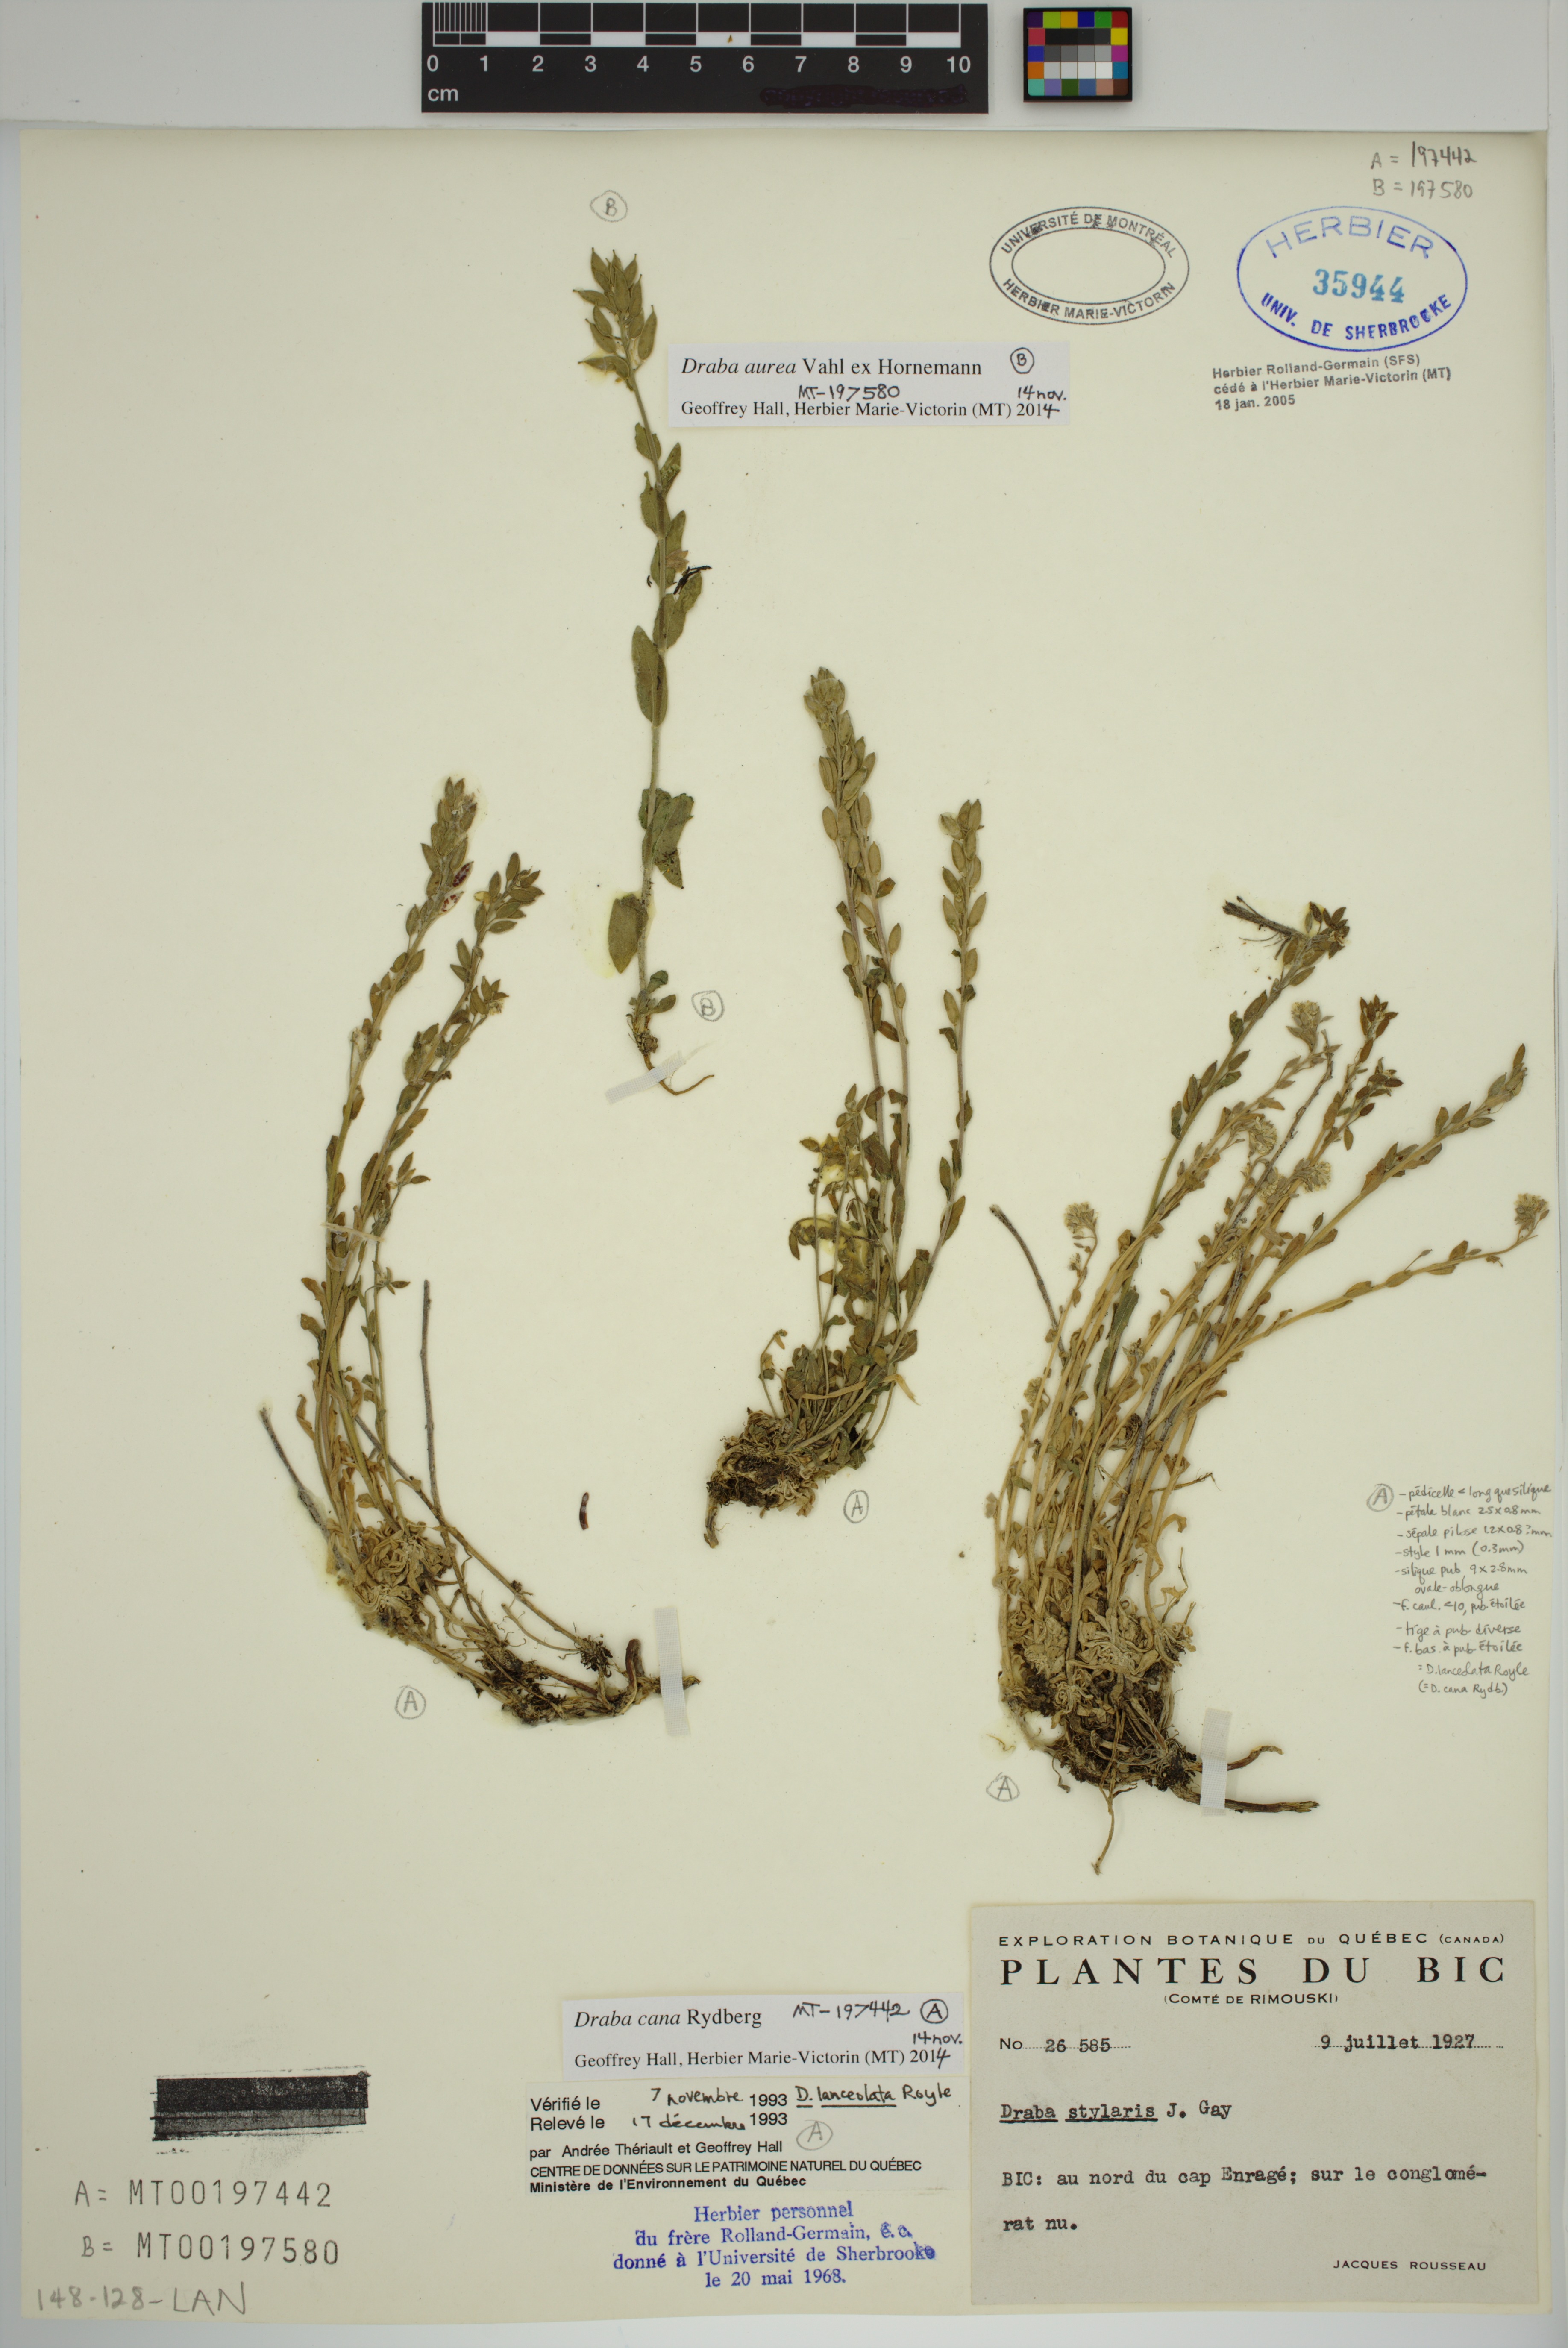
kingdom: Plantae
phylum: Tracheophyta
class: Magnoliopsida
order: Brassicales
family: Brassicaceae
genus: Draba
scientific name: Draba cana
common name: Hoary draba
